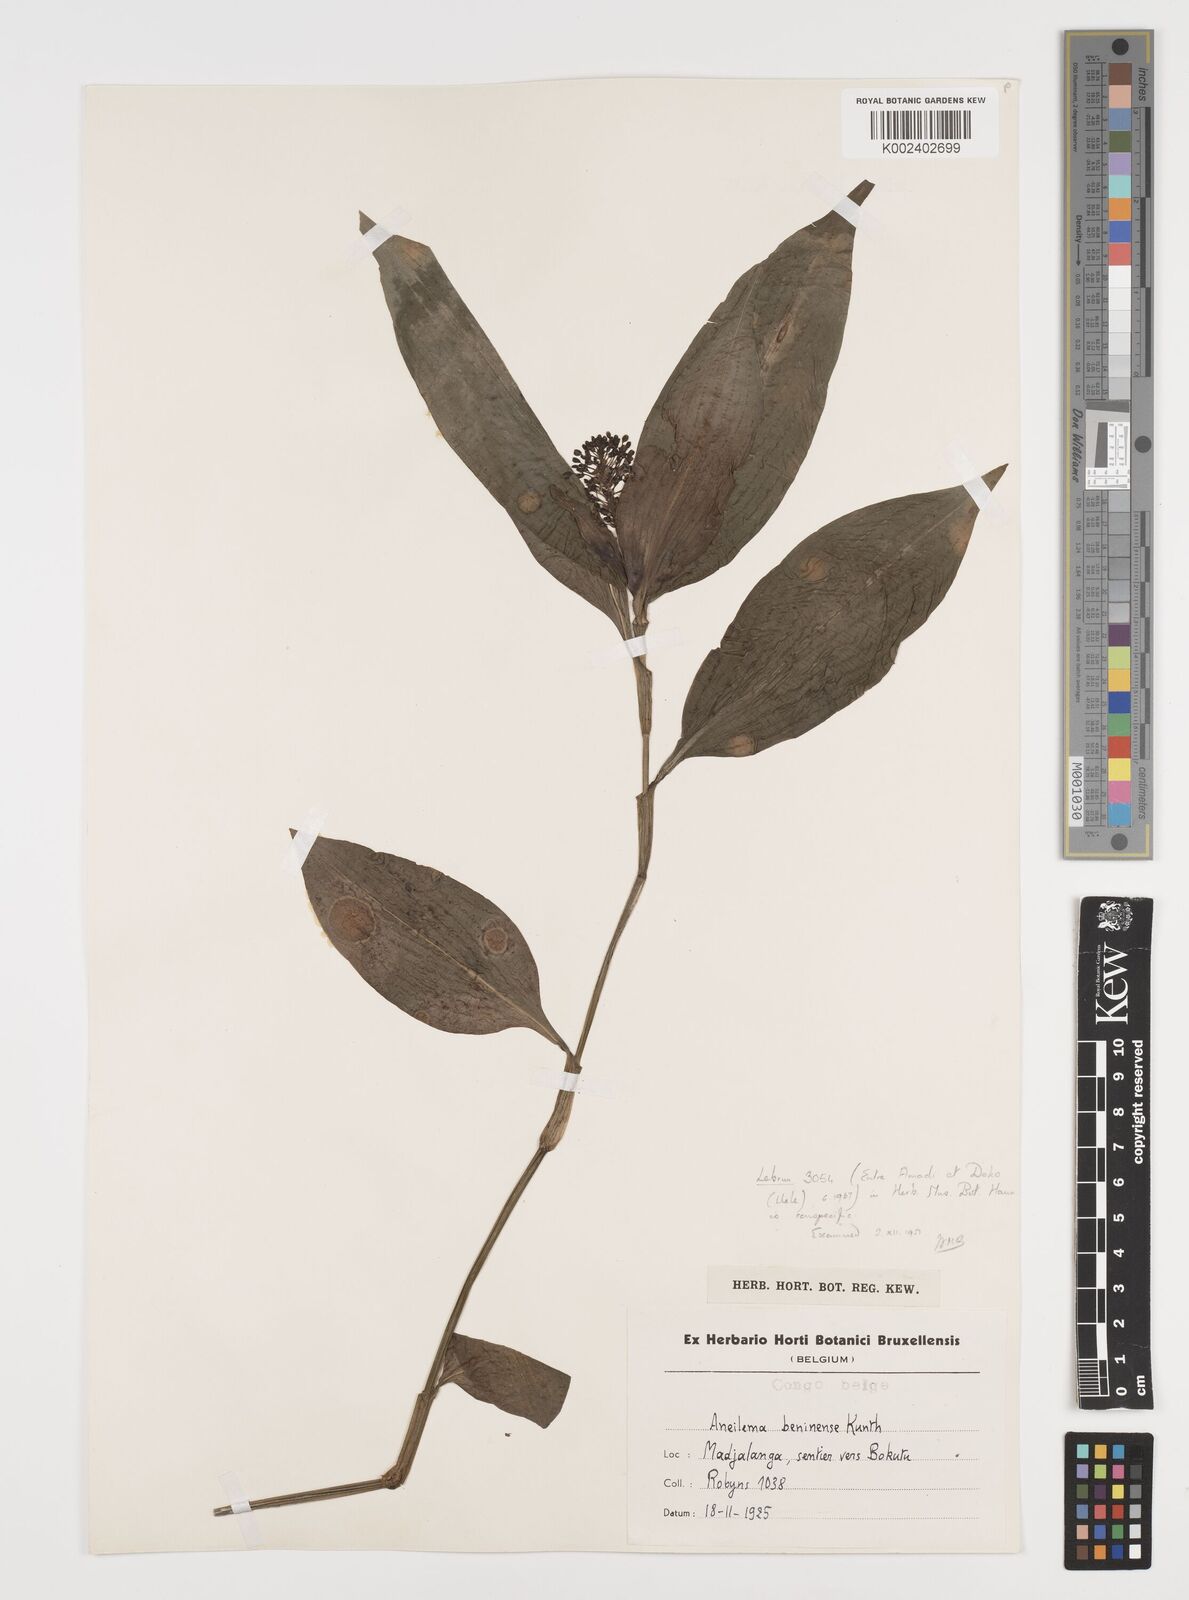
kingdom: Plantae
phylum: Tracheophyta
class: Liliopsida
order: Commelinales
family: Commelinaceae
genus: Aneilema
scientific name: Aneilema beniniense
